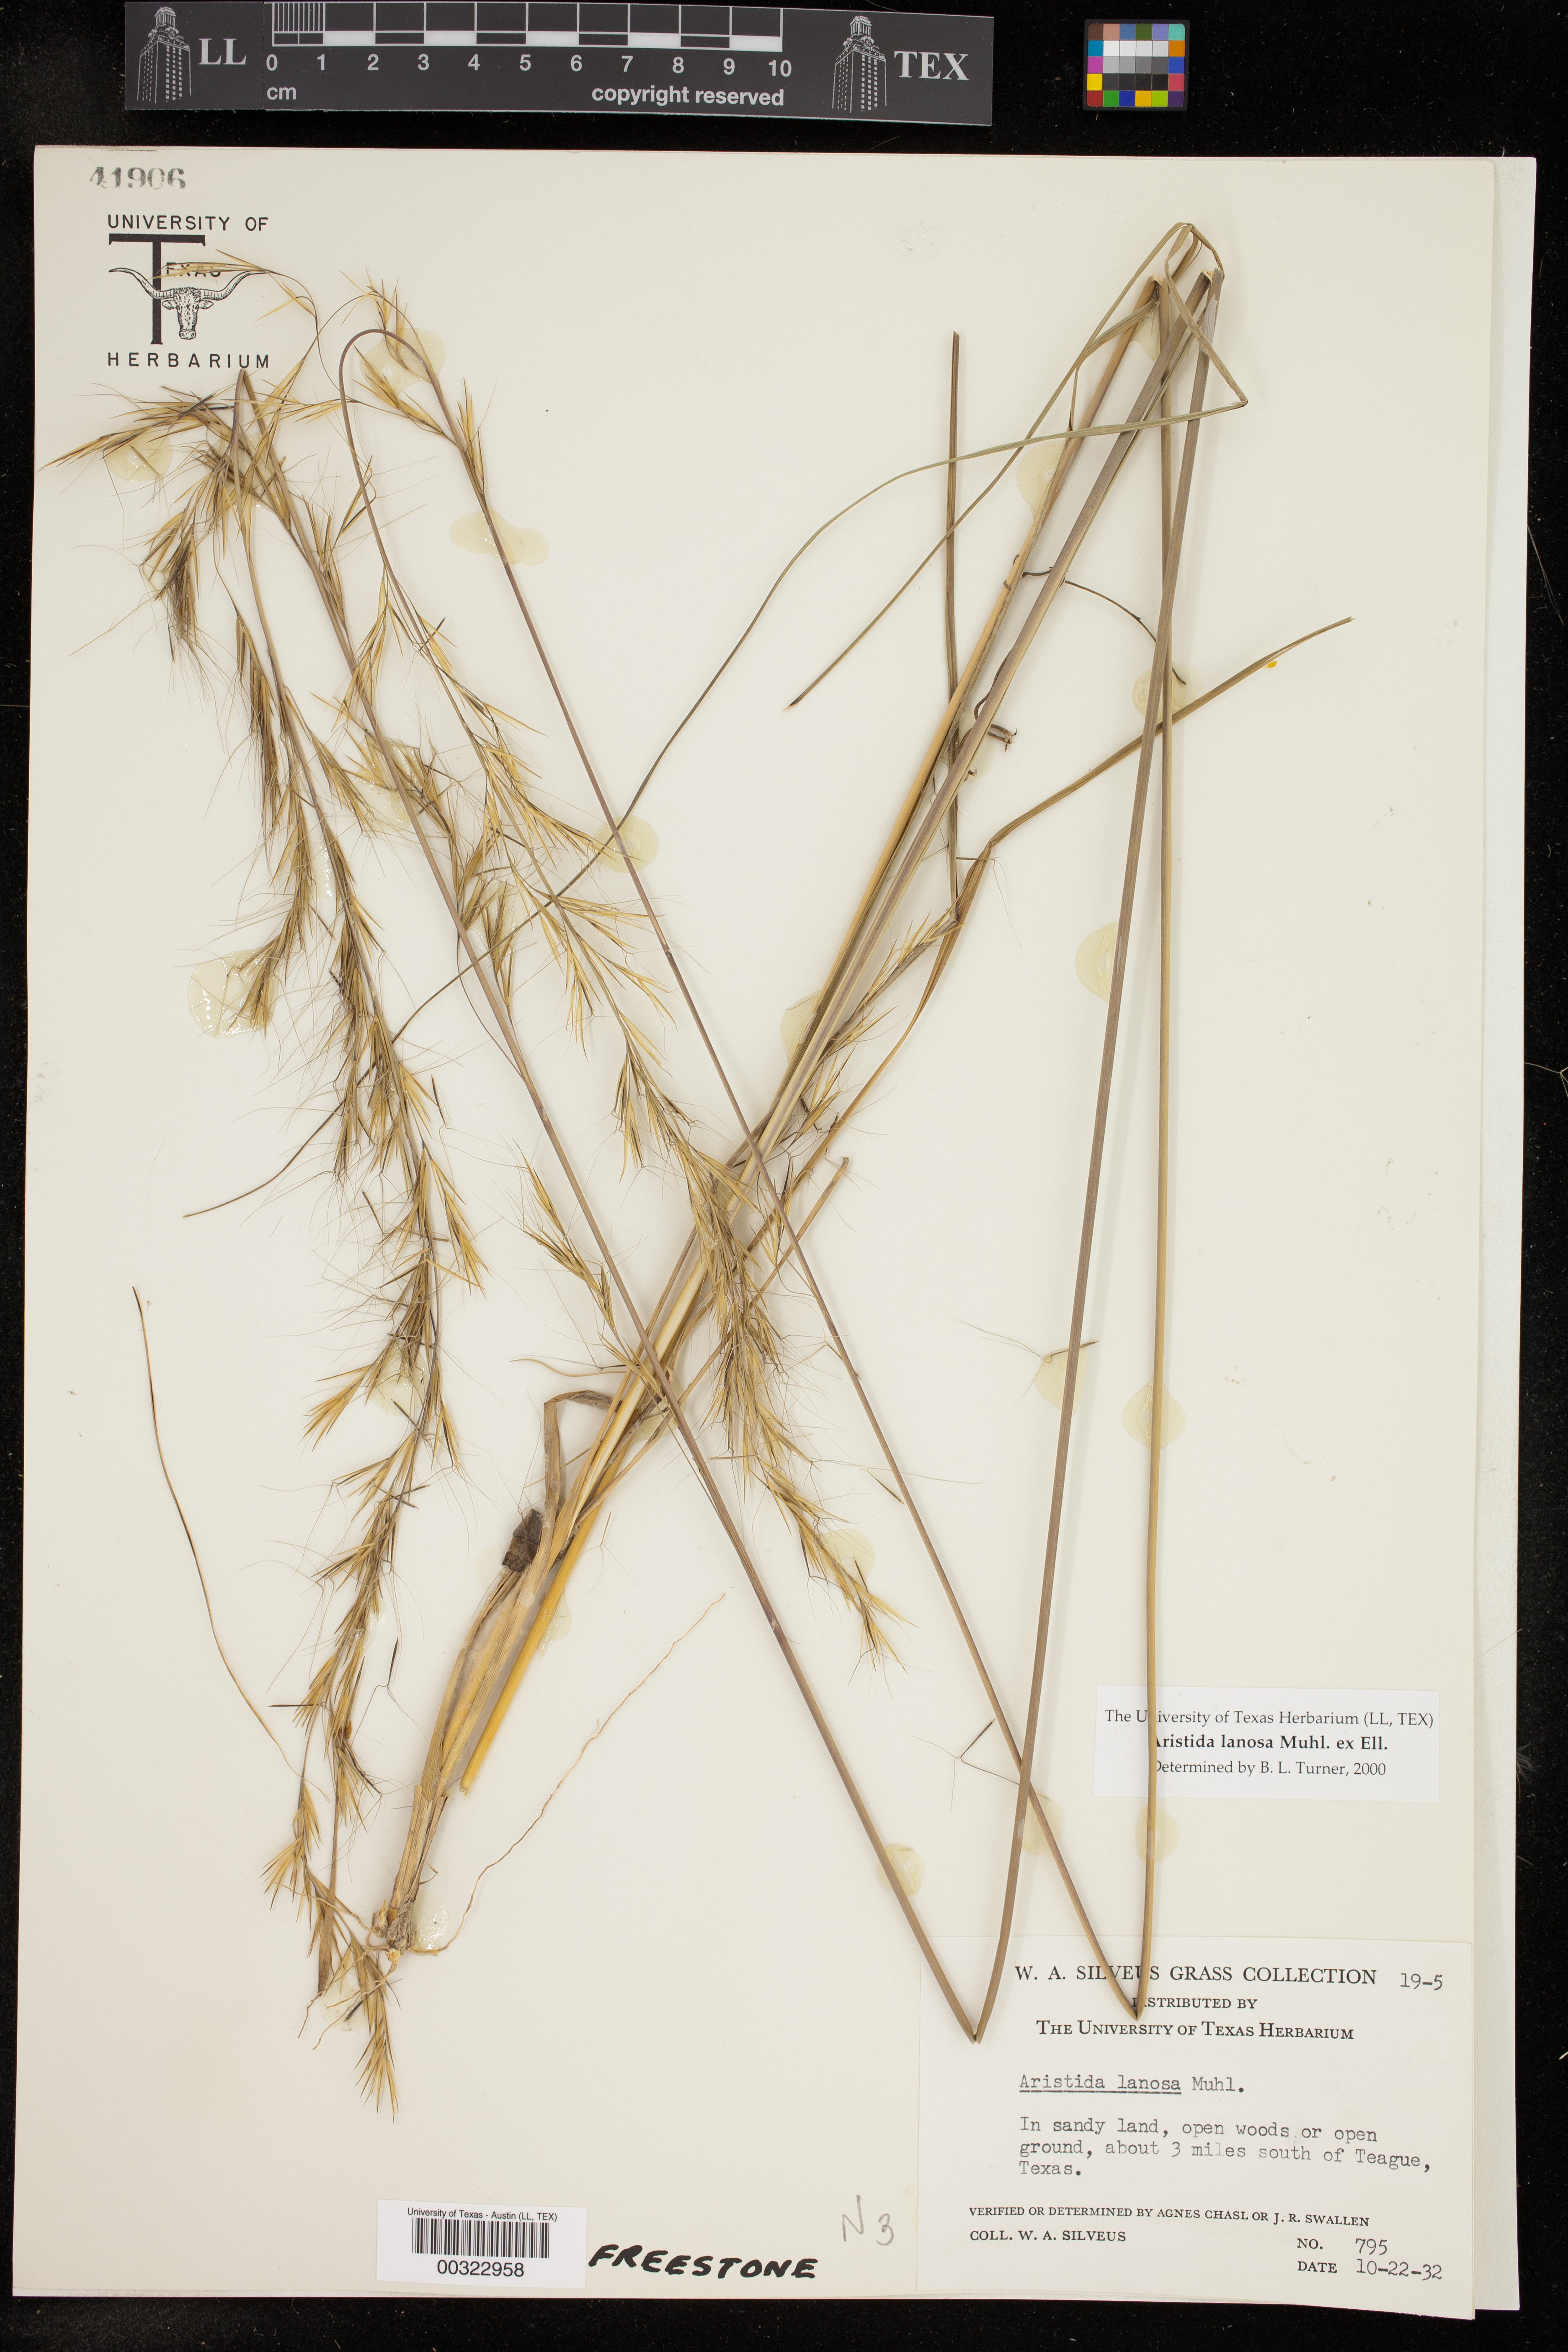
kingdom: Plantae
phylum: Tracheophyta
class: Liliopsida
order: Poales
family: Poaceae
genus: Aristida
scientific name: Aristida lanosa
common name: Woolly three-awn
